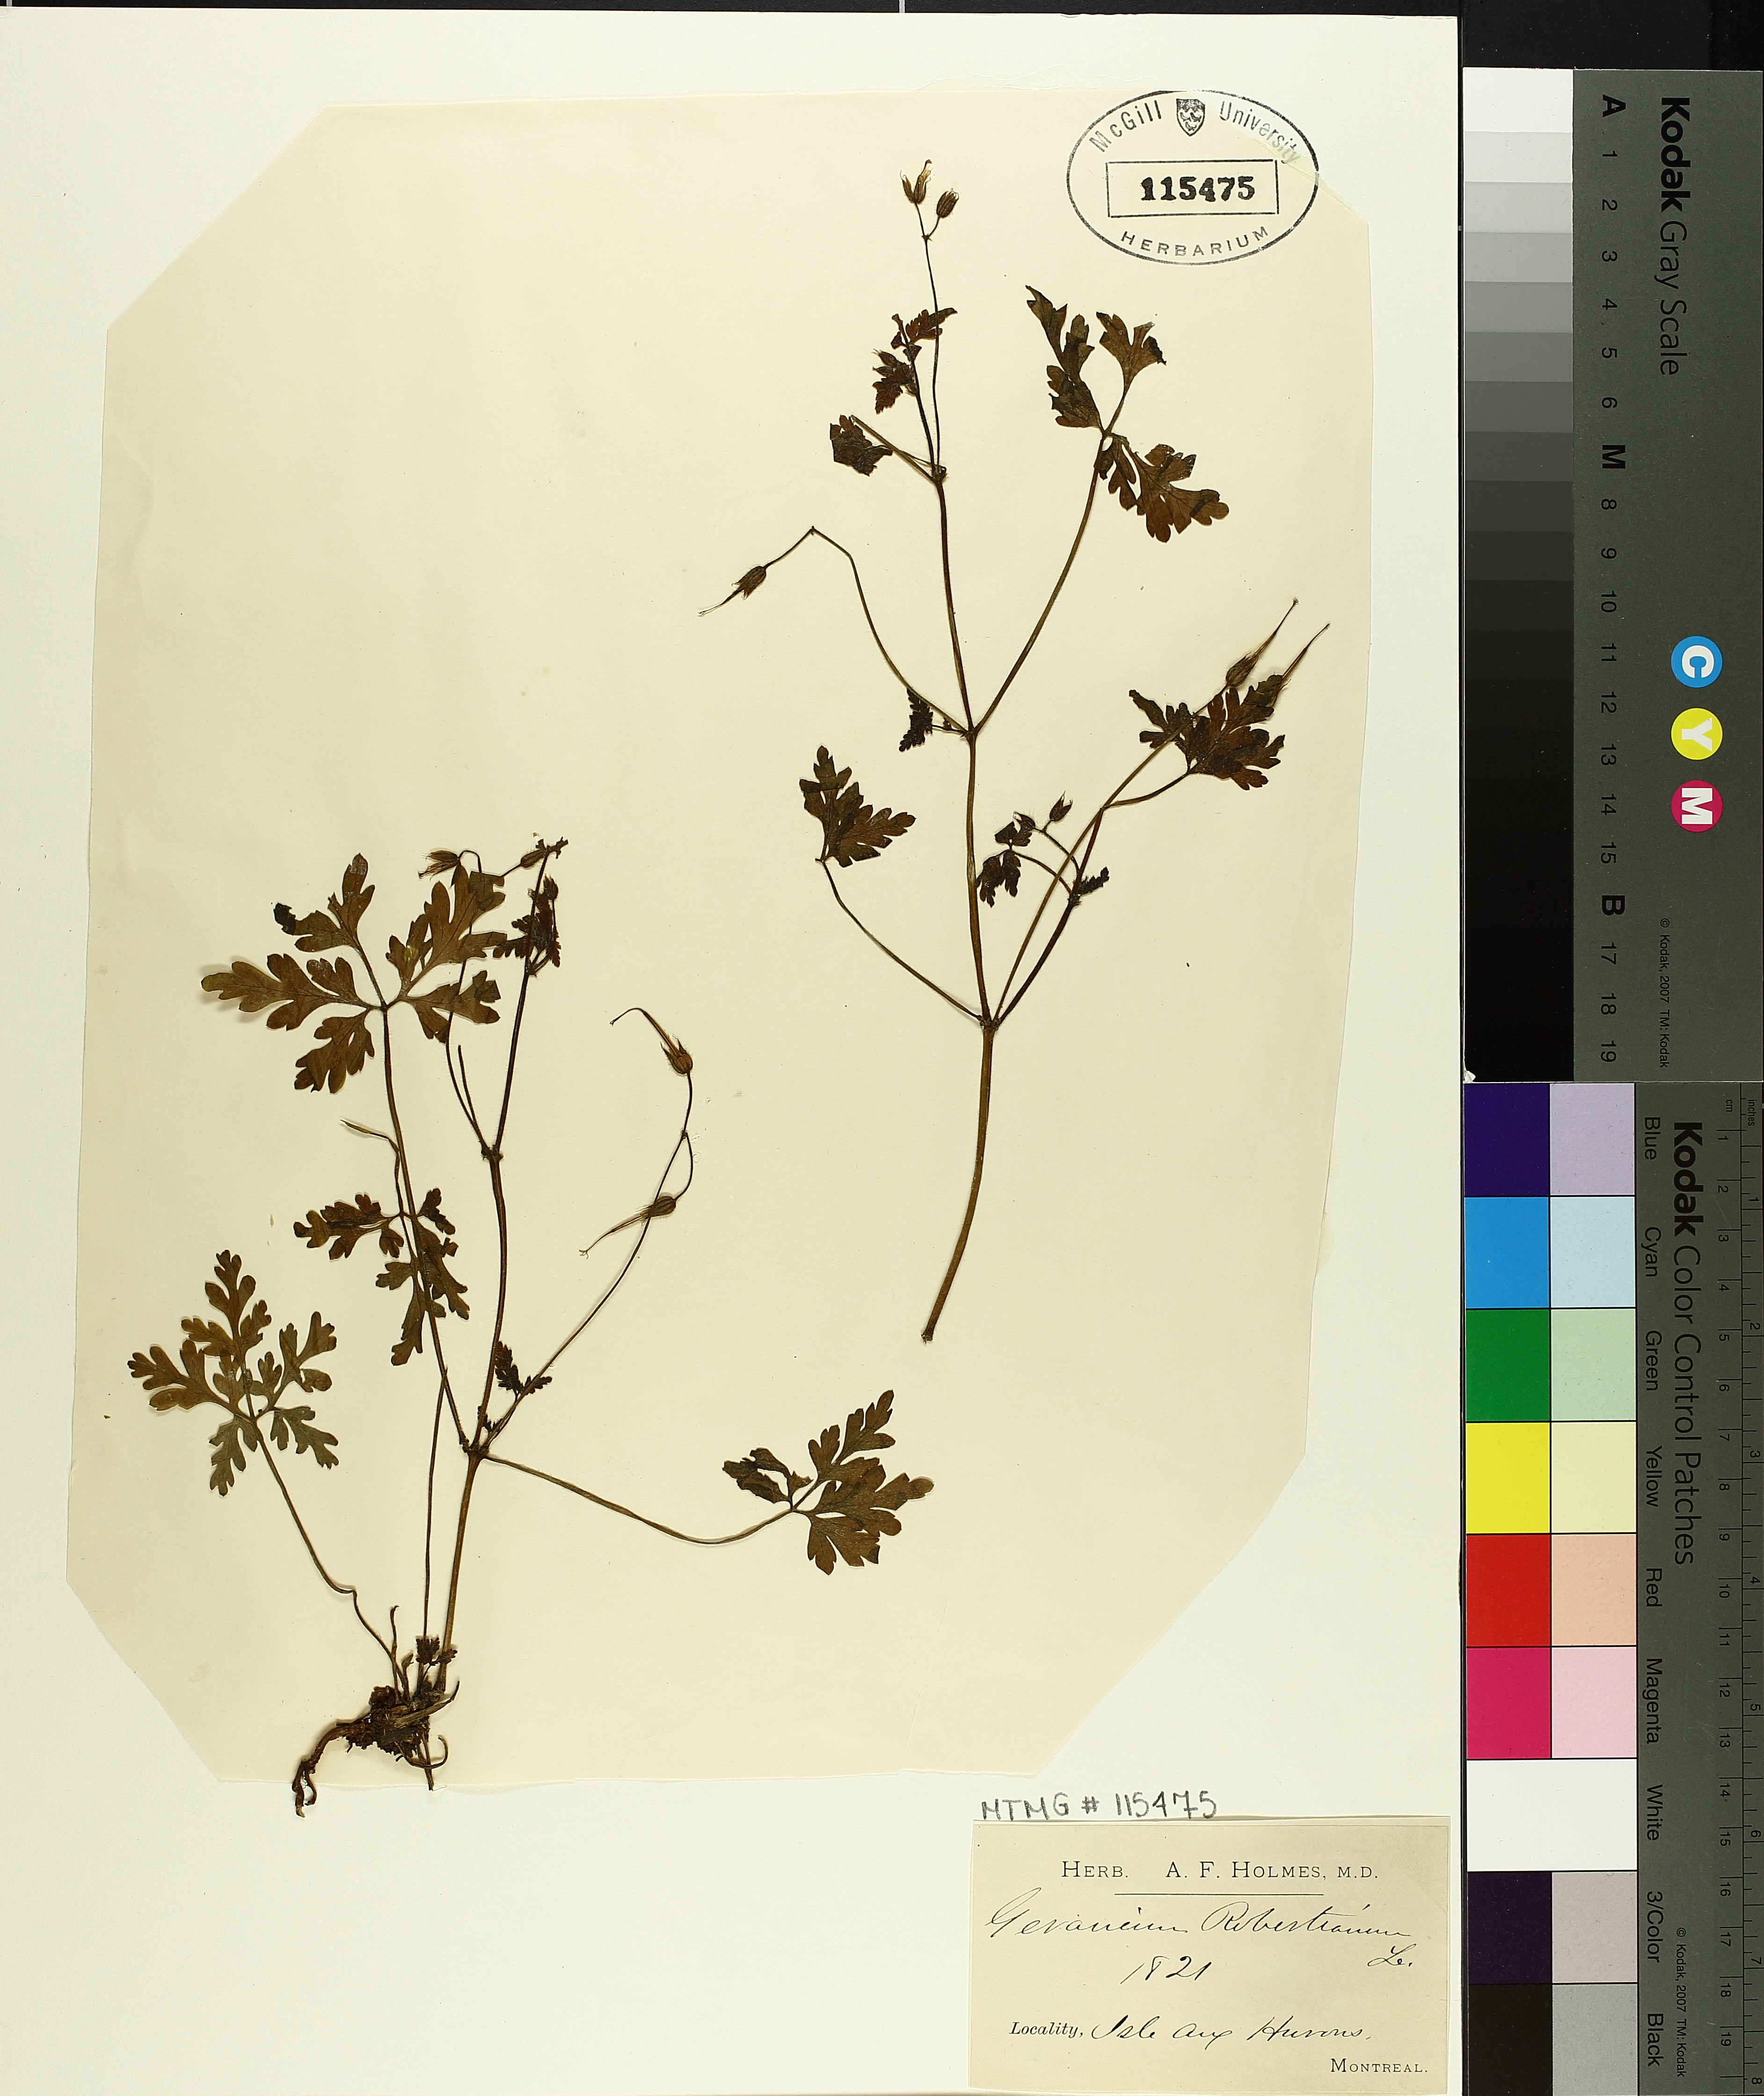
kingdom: Plantae
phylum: Tracheophyta
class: Magnoliopsida
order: Geraniales
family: Geraniaceae
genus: Geranium
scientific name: Geranium robertianum
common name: Herb-robert
